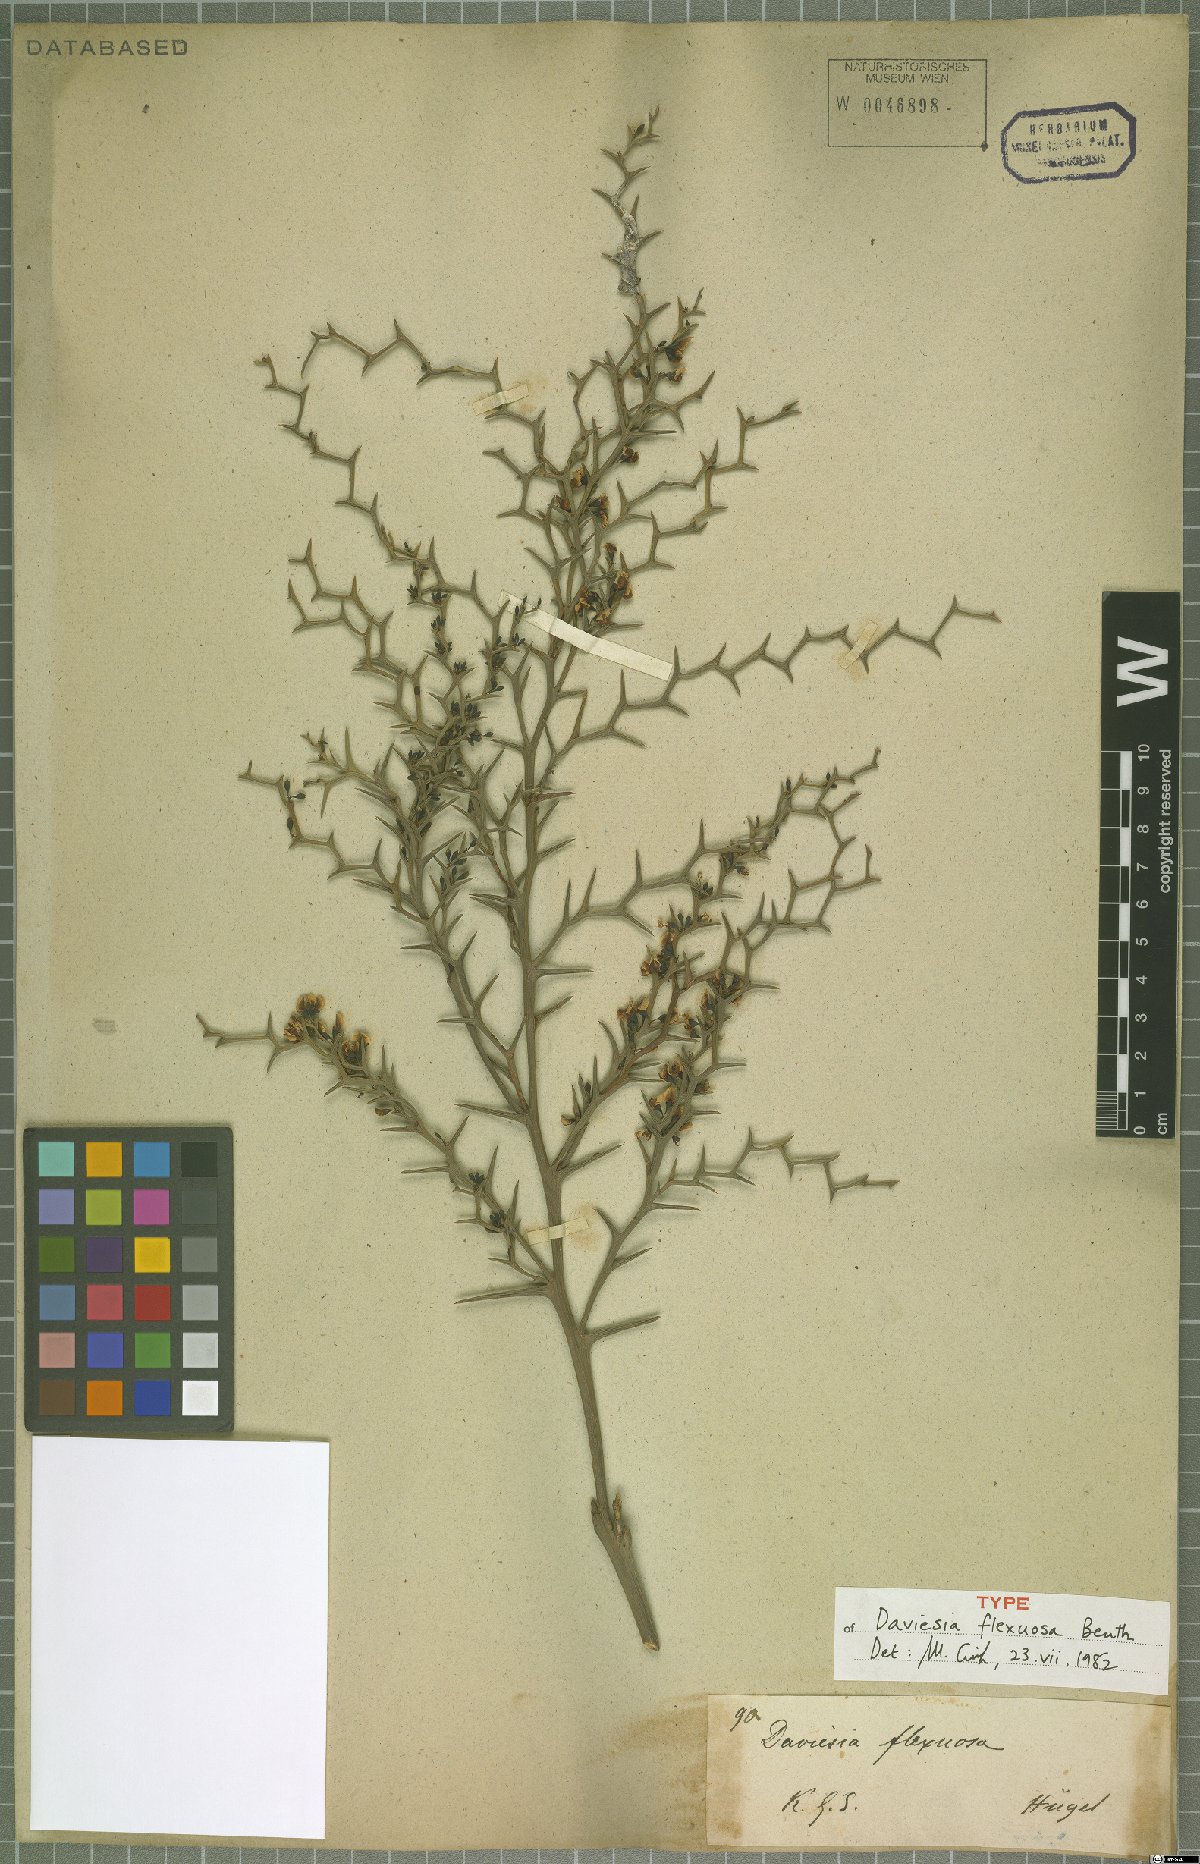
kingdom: Plantae
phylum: Tracheophyta
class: Magnoliopsida
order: Fabales
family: Fabaceae
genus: Daviesia
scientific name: Daviesia flexuosa
